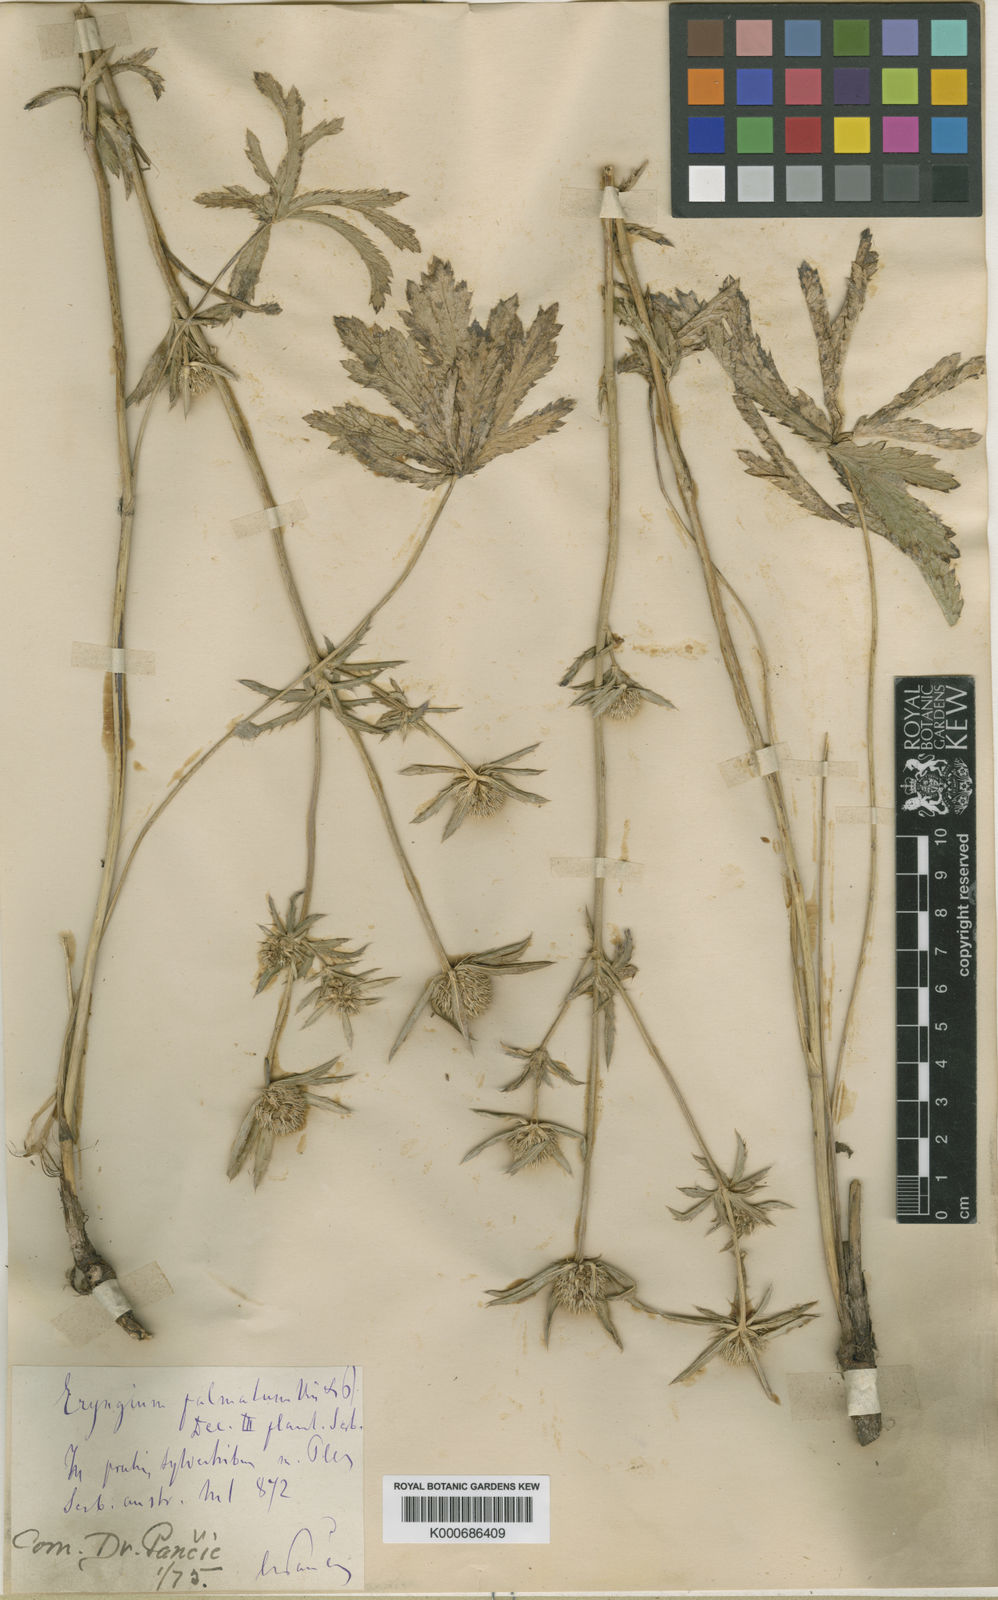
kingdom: Plantae
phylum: Tracheophyta
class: Magnoliopsida
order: Apiales
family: Apiaceae
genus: Eryngium
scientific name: Eryngium palmatum
